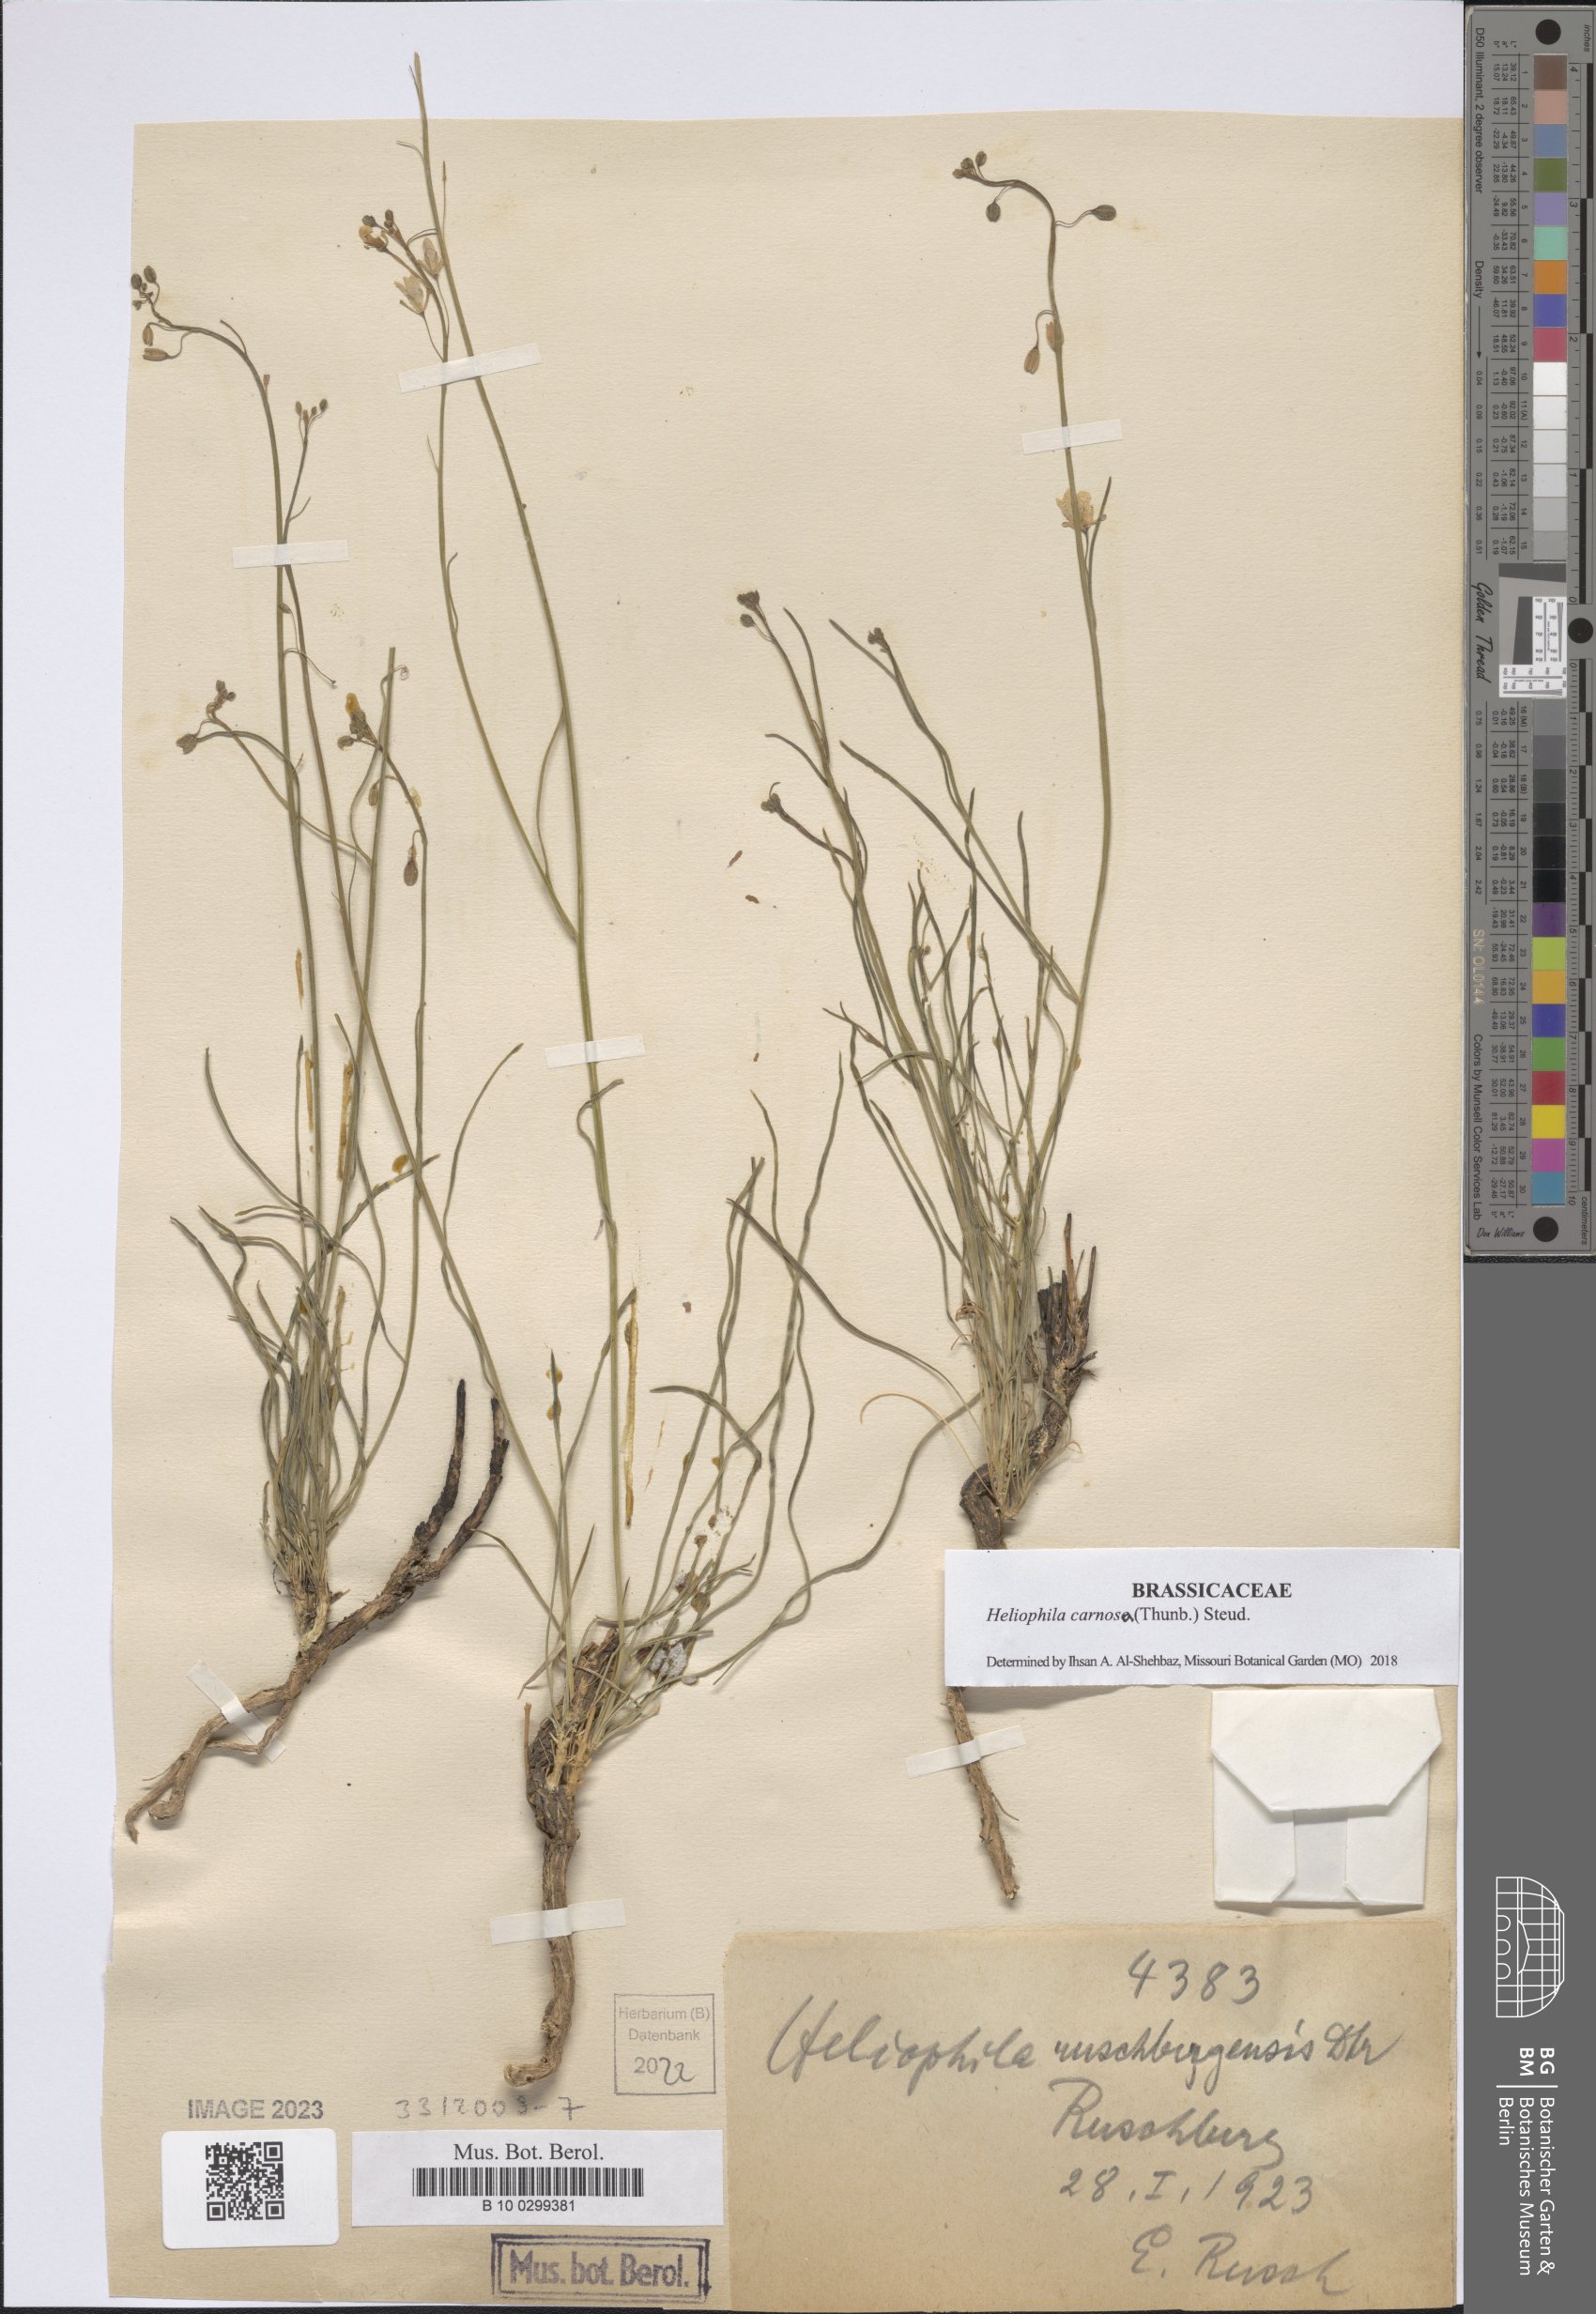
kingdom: Plantae
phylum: Tracheophyta
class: Magnoliopsida
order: Brassicales
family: Brassicaceae
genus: Heliophila
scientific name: Heliophila carnosa
